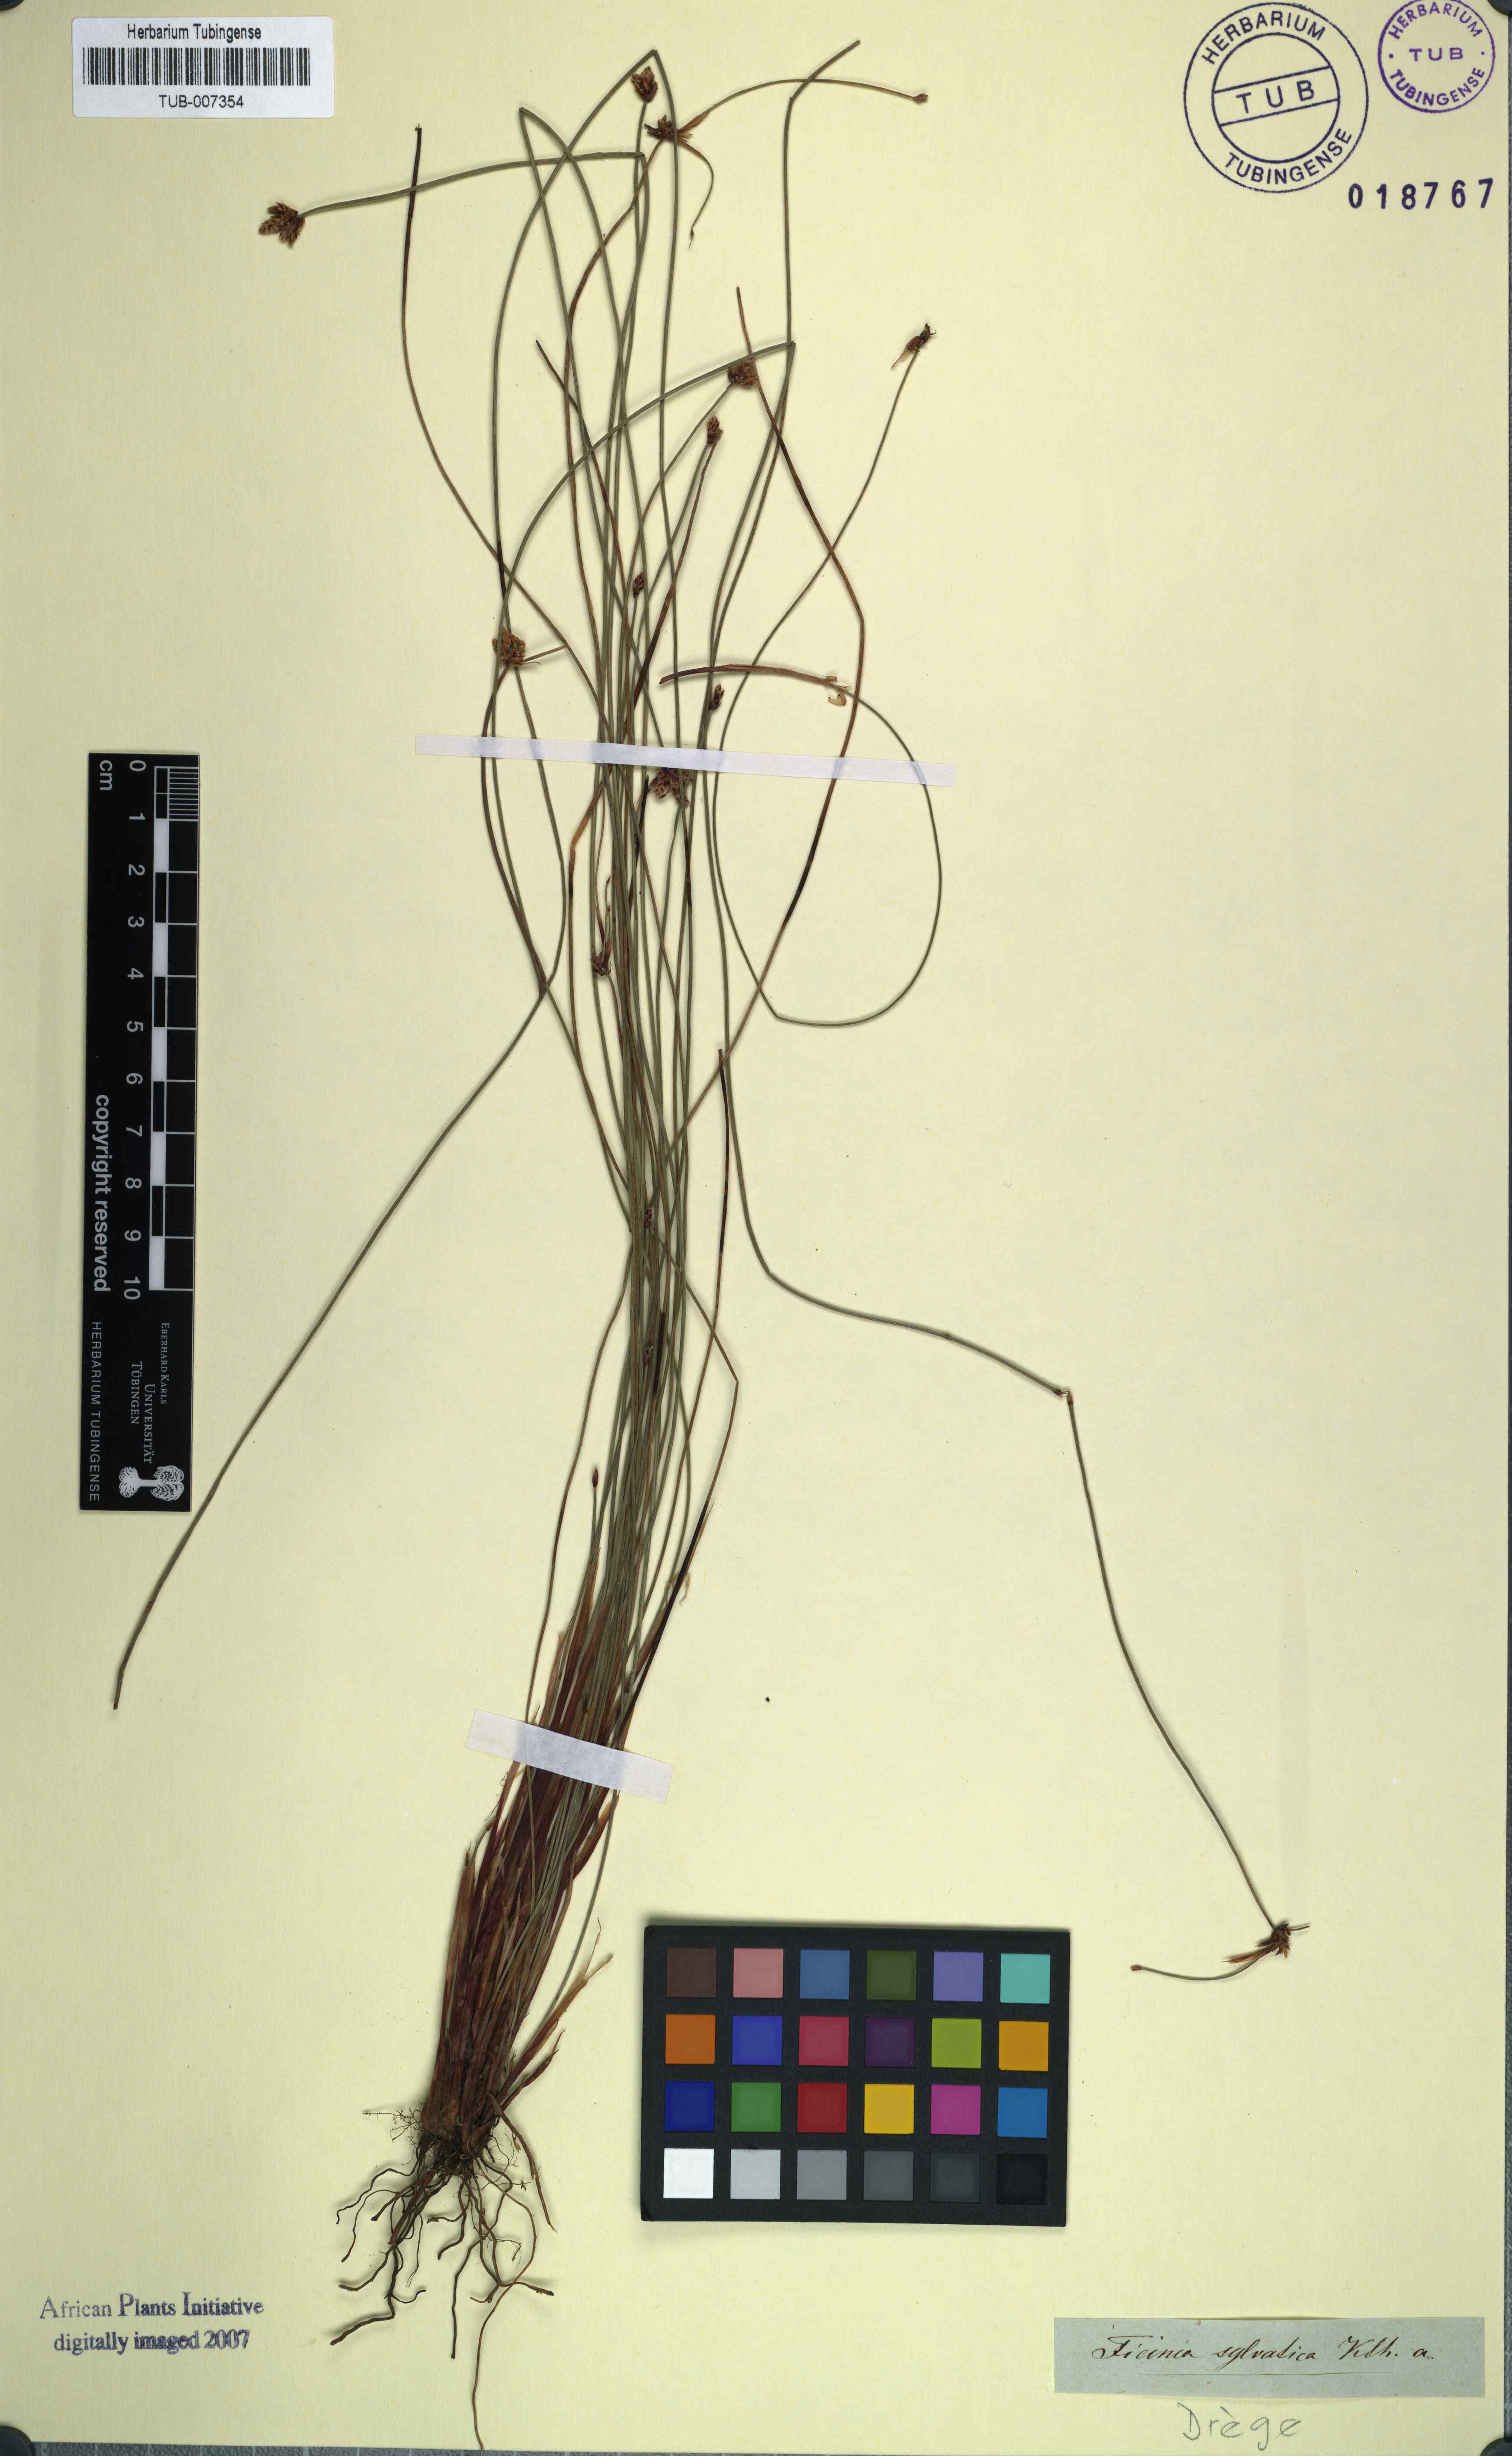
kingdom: Plantae
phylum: Tracheophyta
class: Liliopsida
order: Poales
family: Cyperaceae
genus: Ficinia
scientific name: Ficinia sylvatica
